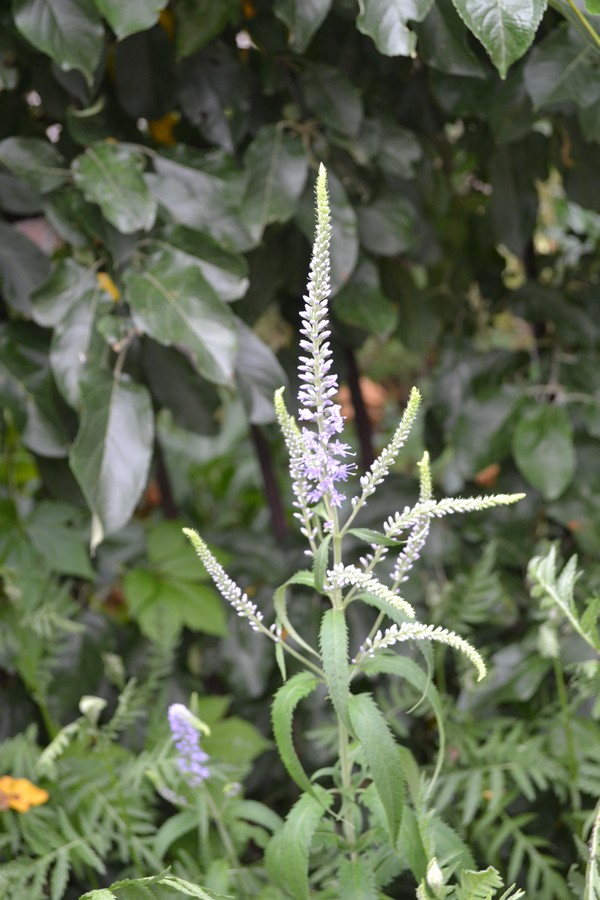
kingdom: Plantae
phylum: Tracheophyta
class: Magnoliopsida
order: Lamiales
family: Plantaginaceae
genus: Veronica
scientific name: Veronica longifolia
